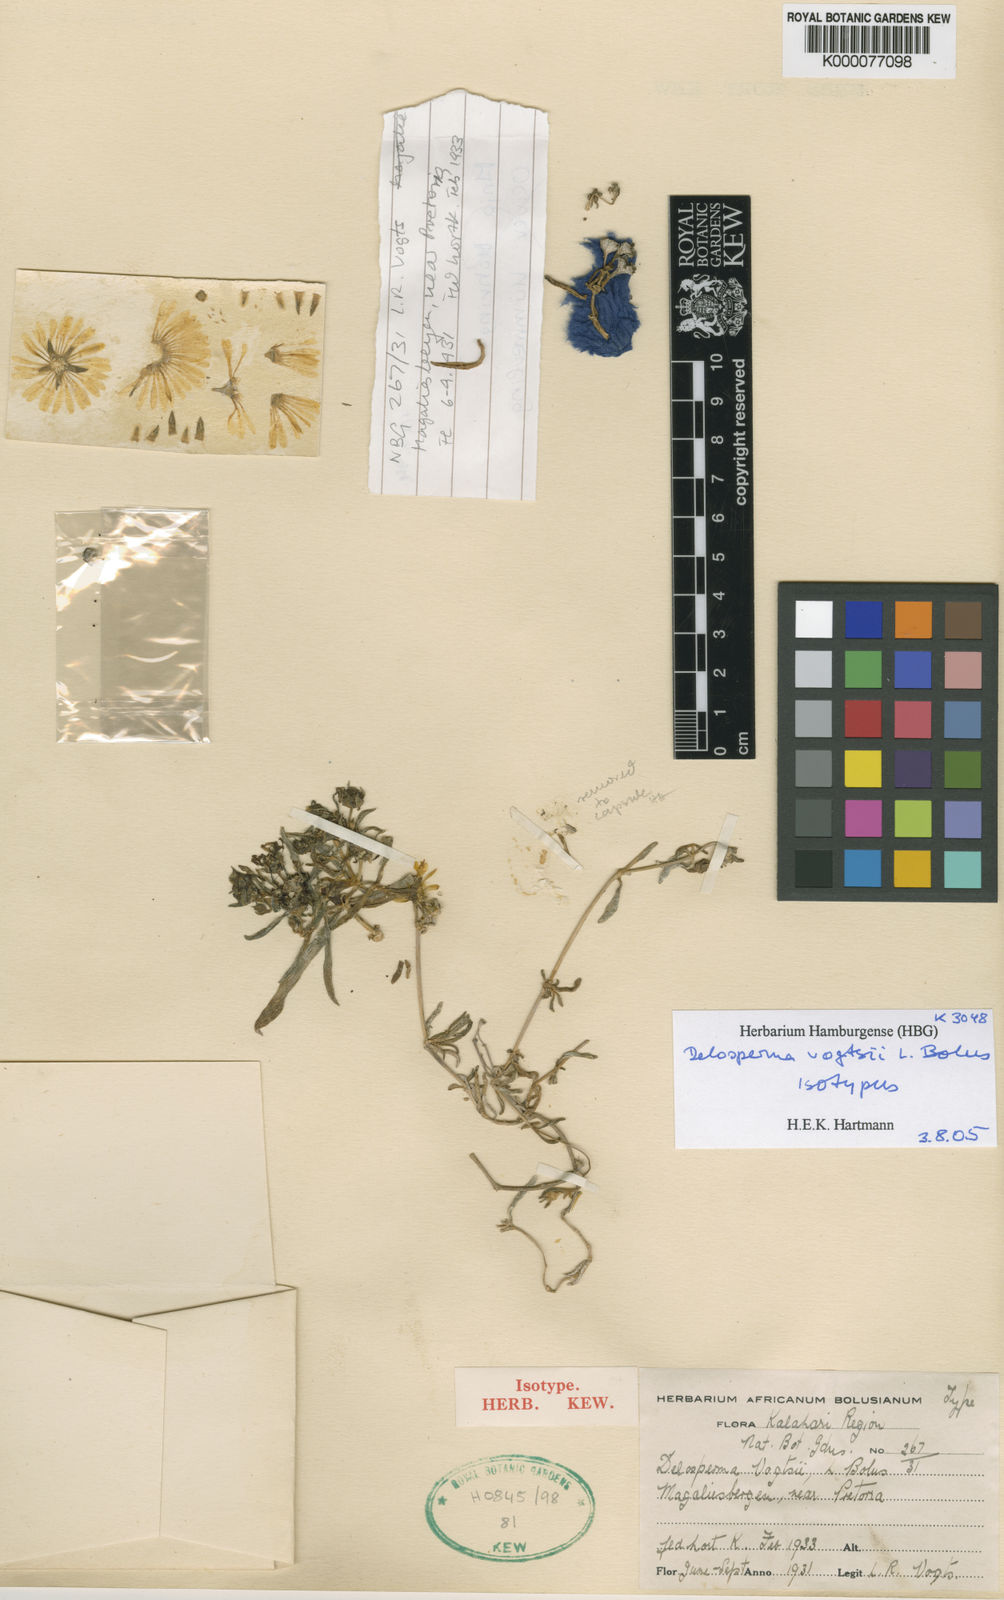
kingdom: Plantae
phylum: Tracheophyta
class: Magnoliopsida
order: Caryophyllales
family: Aizoaceae
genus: Delosperma
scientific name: Delosperma leendertziae
